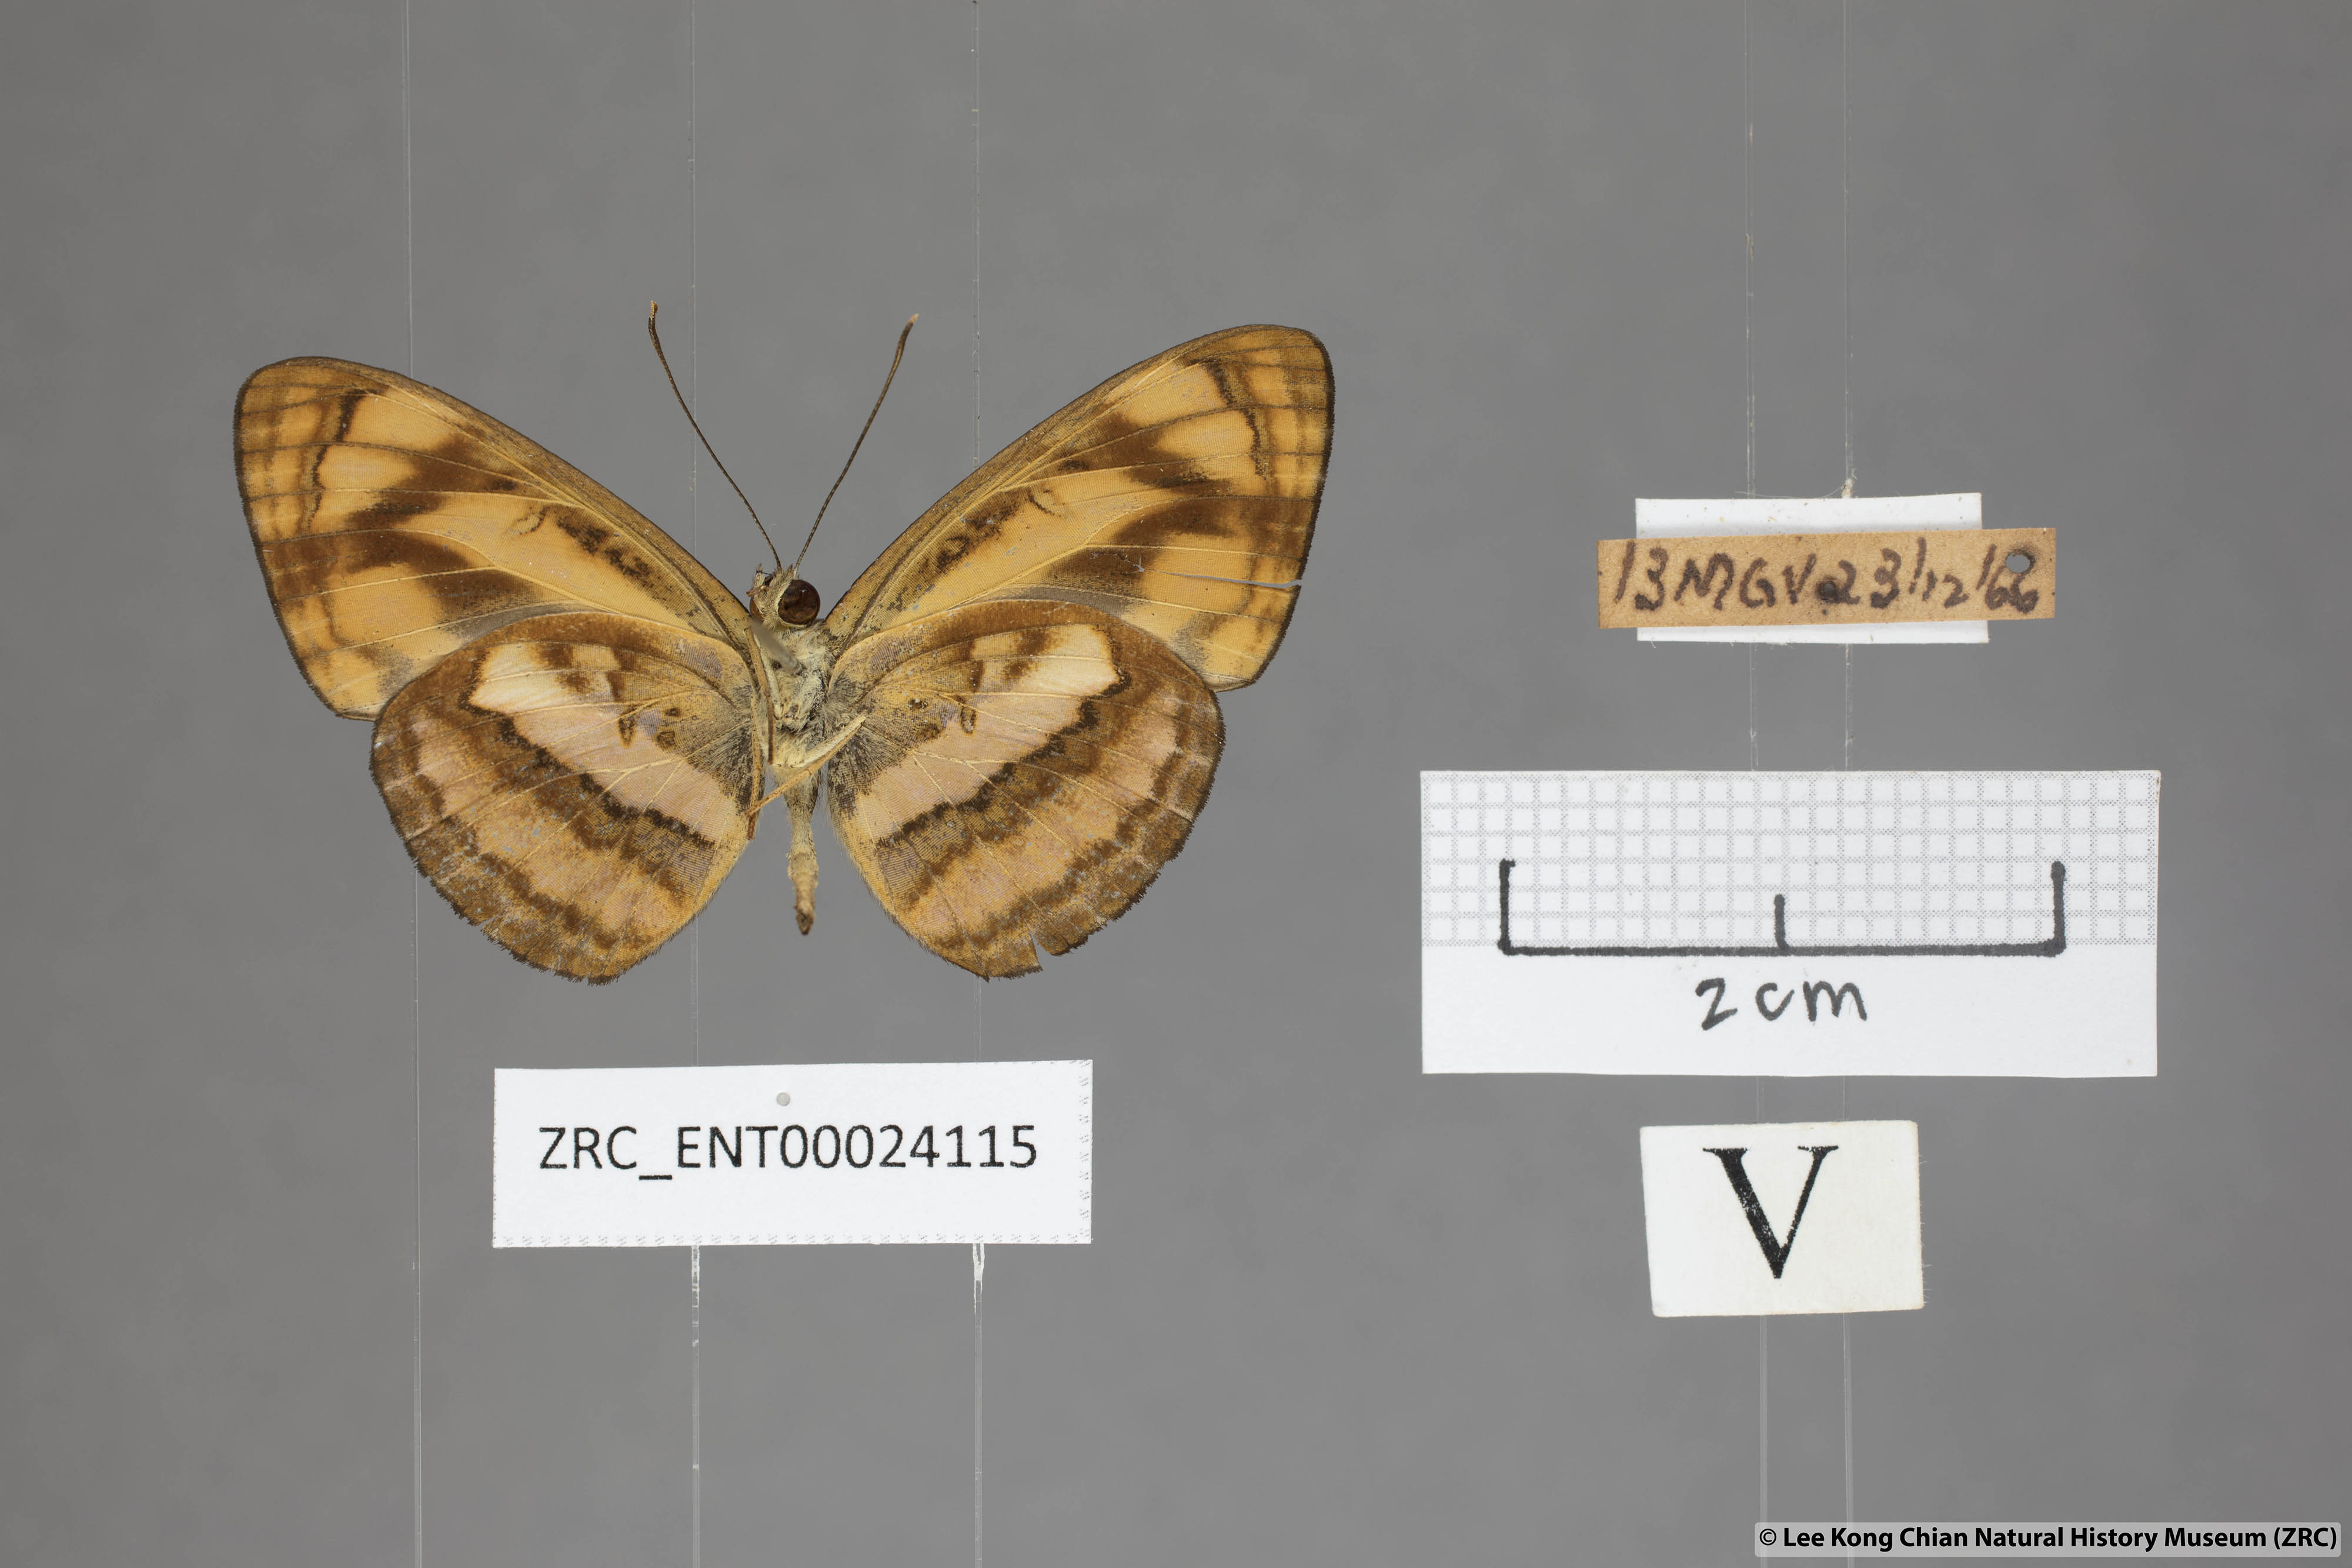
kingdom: Animalia
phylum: Arthropoda
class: Insecta
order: Lepidoptera
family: Nymphalidae
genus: Pantoporia
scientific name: Pantoporia aurelia
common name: Baby lascar
